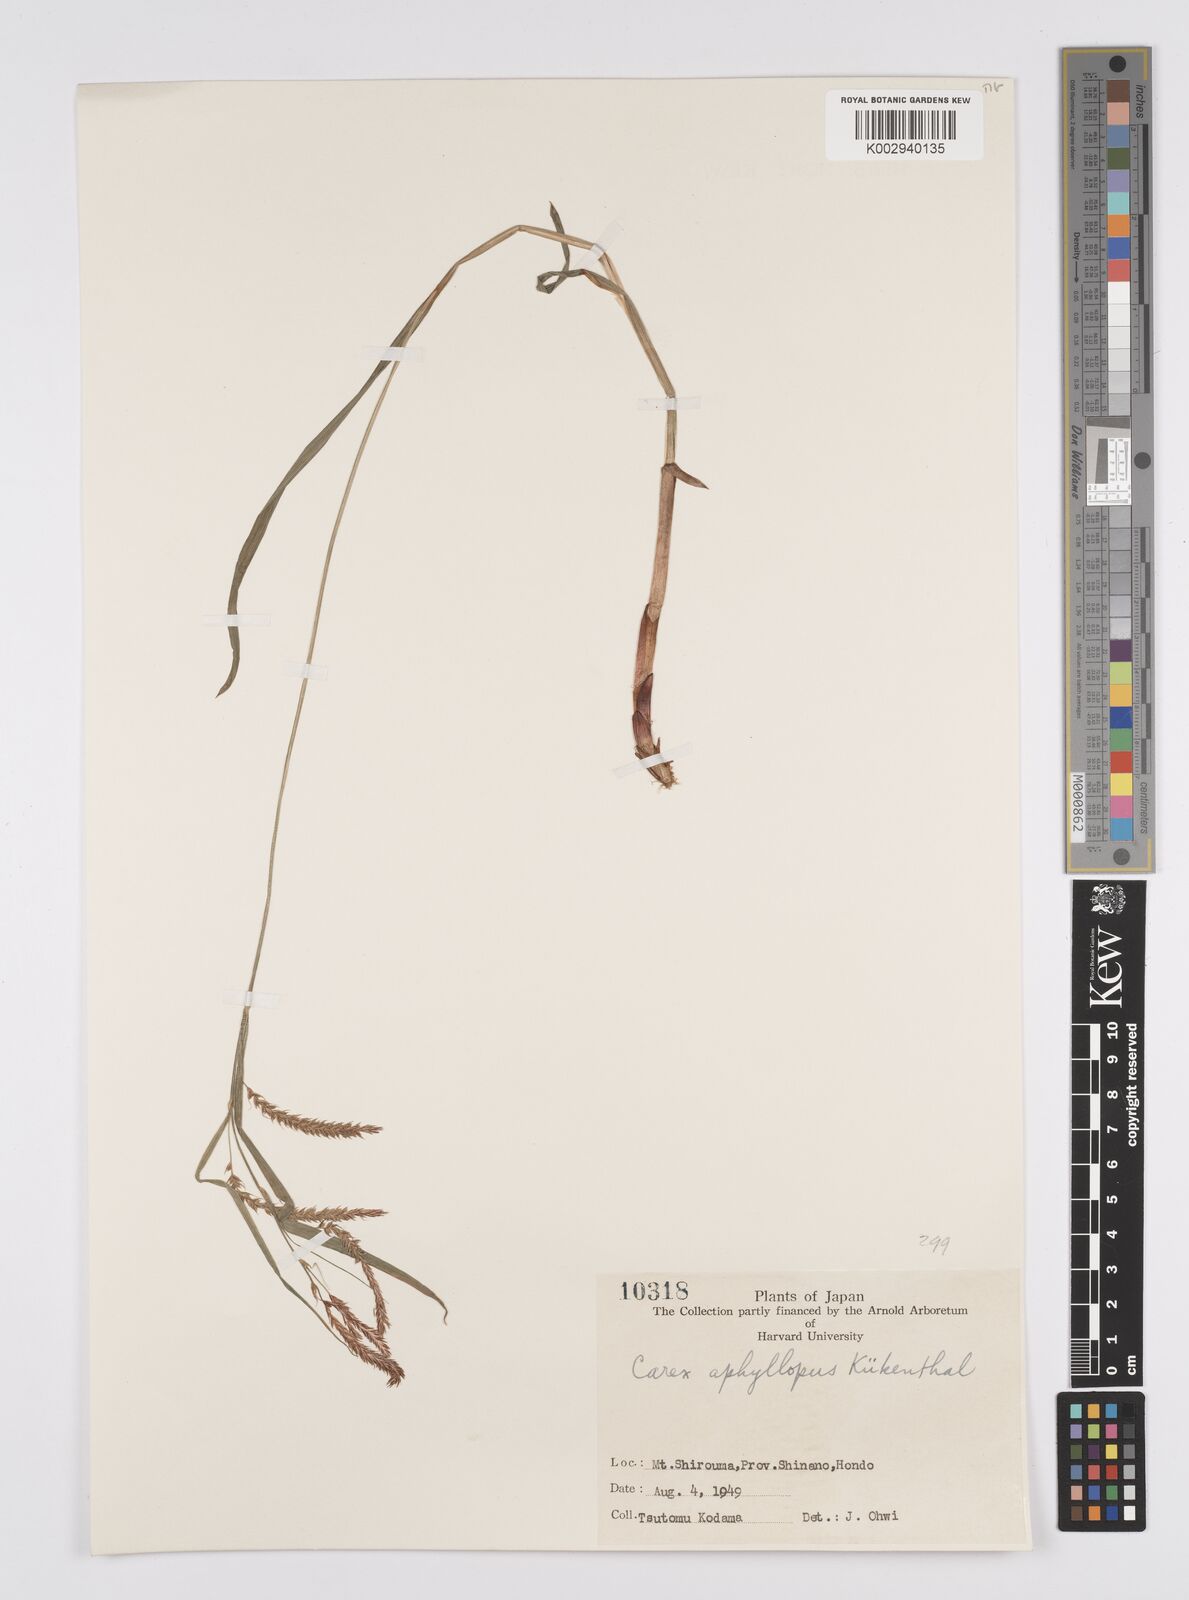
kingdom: Plantae
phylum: Tracheophyta
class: Liliopsida
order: Poales
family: Cyperaceae
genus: Carex
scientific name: Carex aphyllopus
